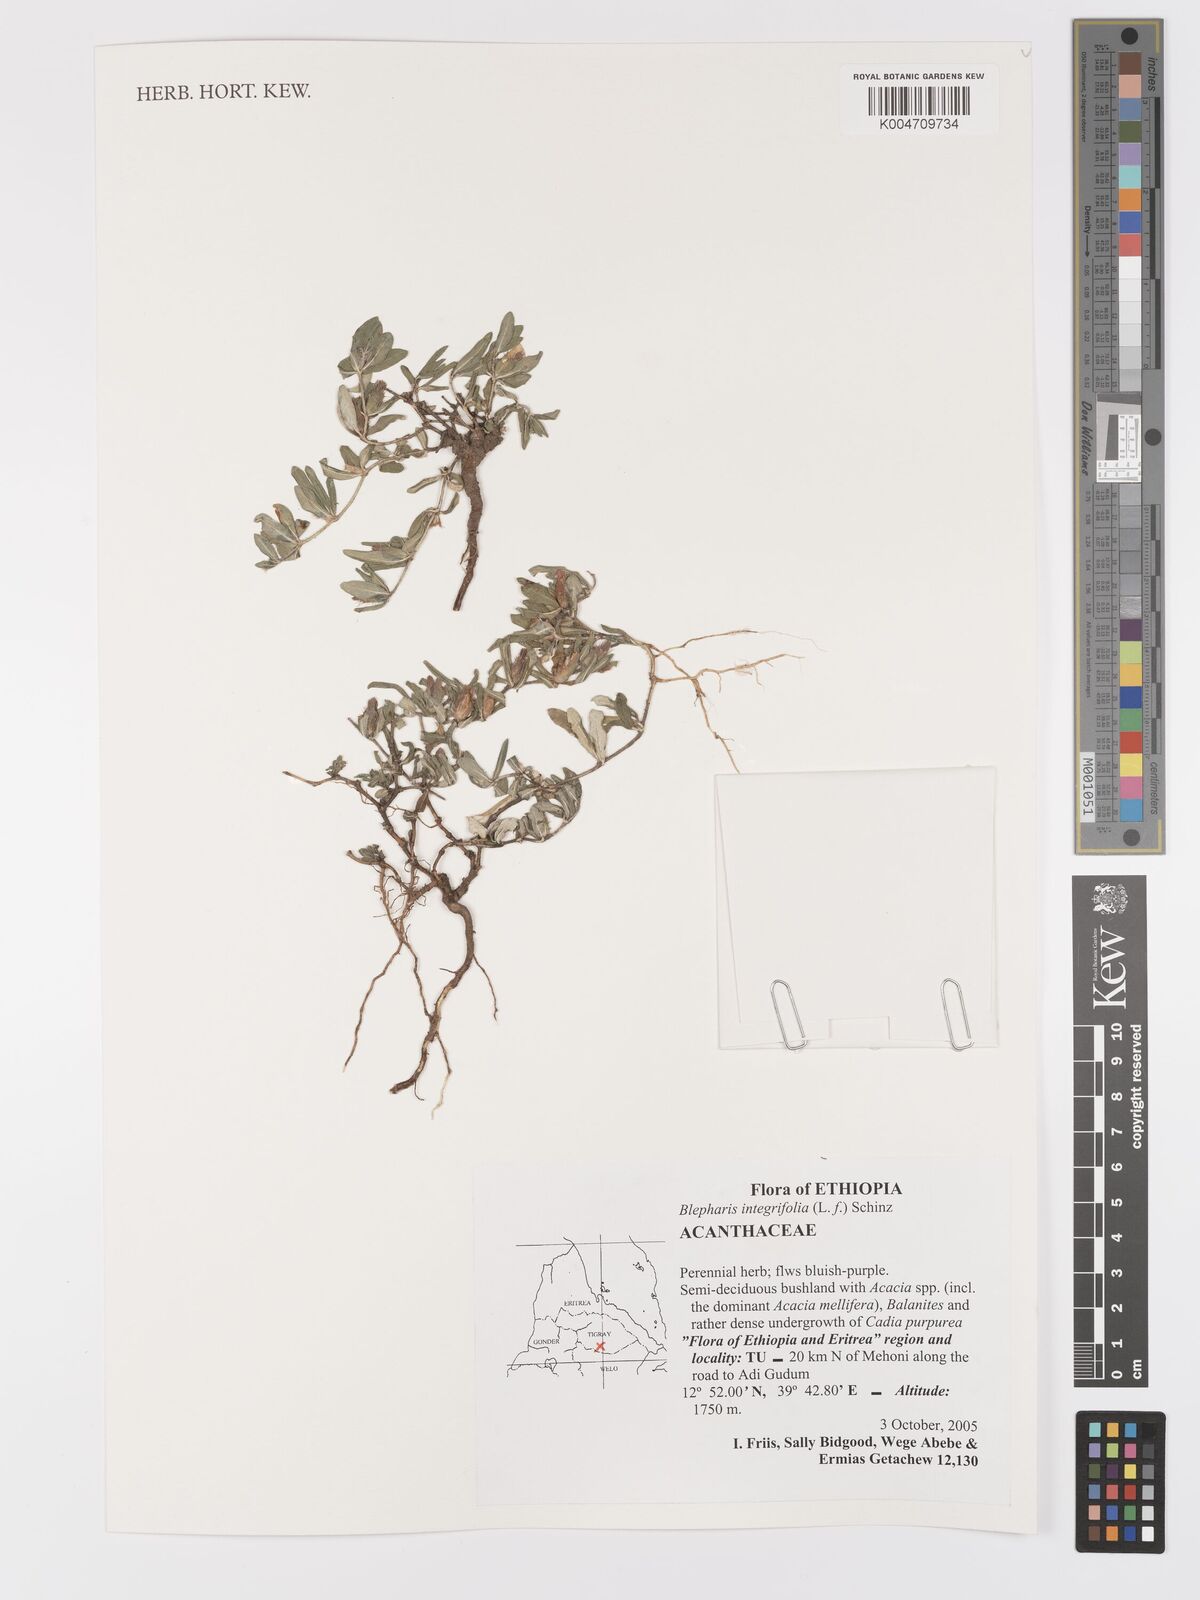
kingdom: Plantae
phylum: Tracheophyta
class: Magnoliopsida
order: Lamiales
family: Acanthaceae
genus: Blepharis
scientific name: Blepharis integrifolia
